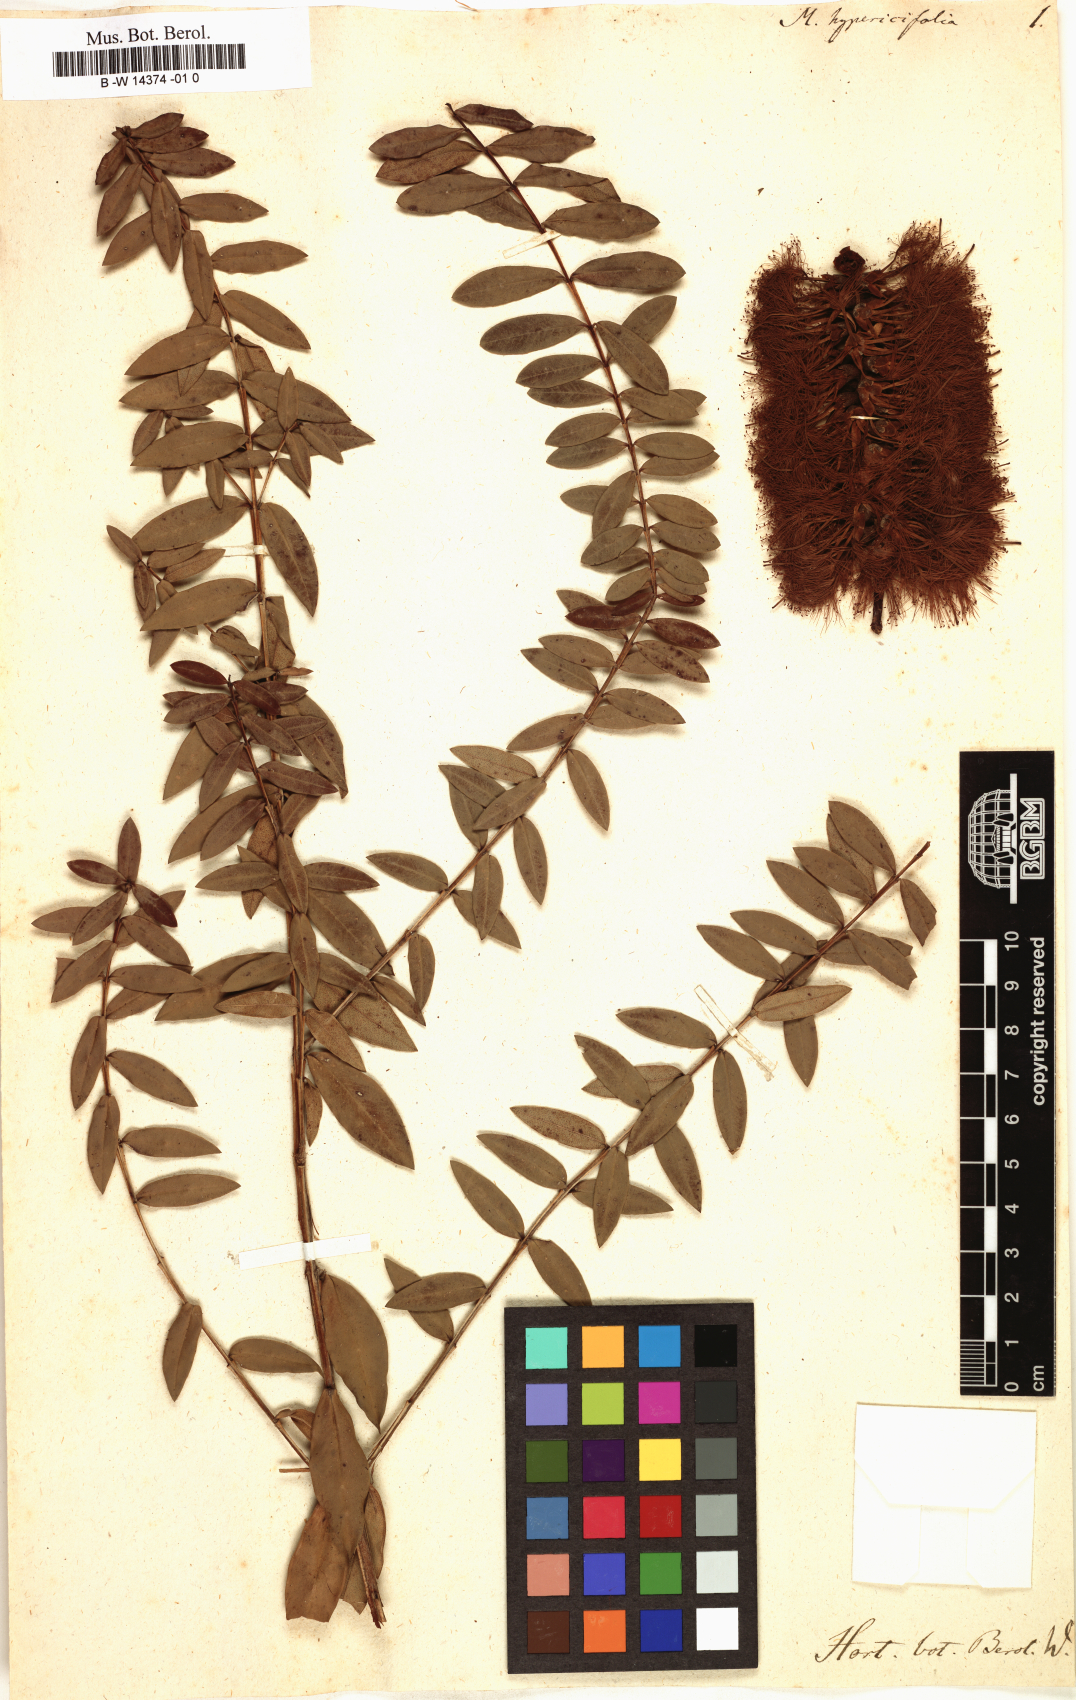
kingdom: Plantae
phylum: Tracheophyta
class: Magnoliopsida
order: Myrtales
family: Myrtaceae
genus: Melaleuca
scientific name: Melaleuca hypericifolia
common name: Red honey myrtle
